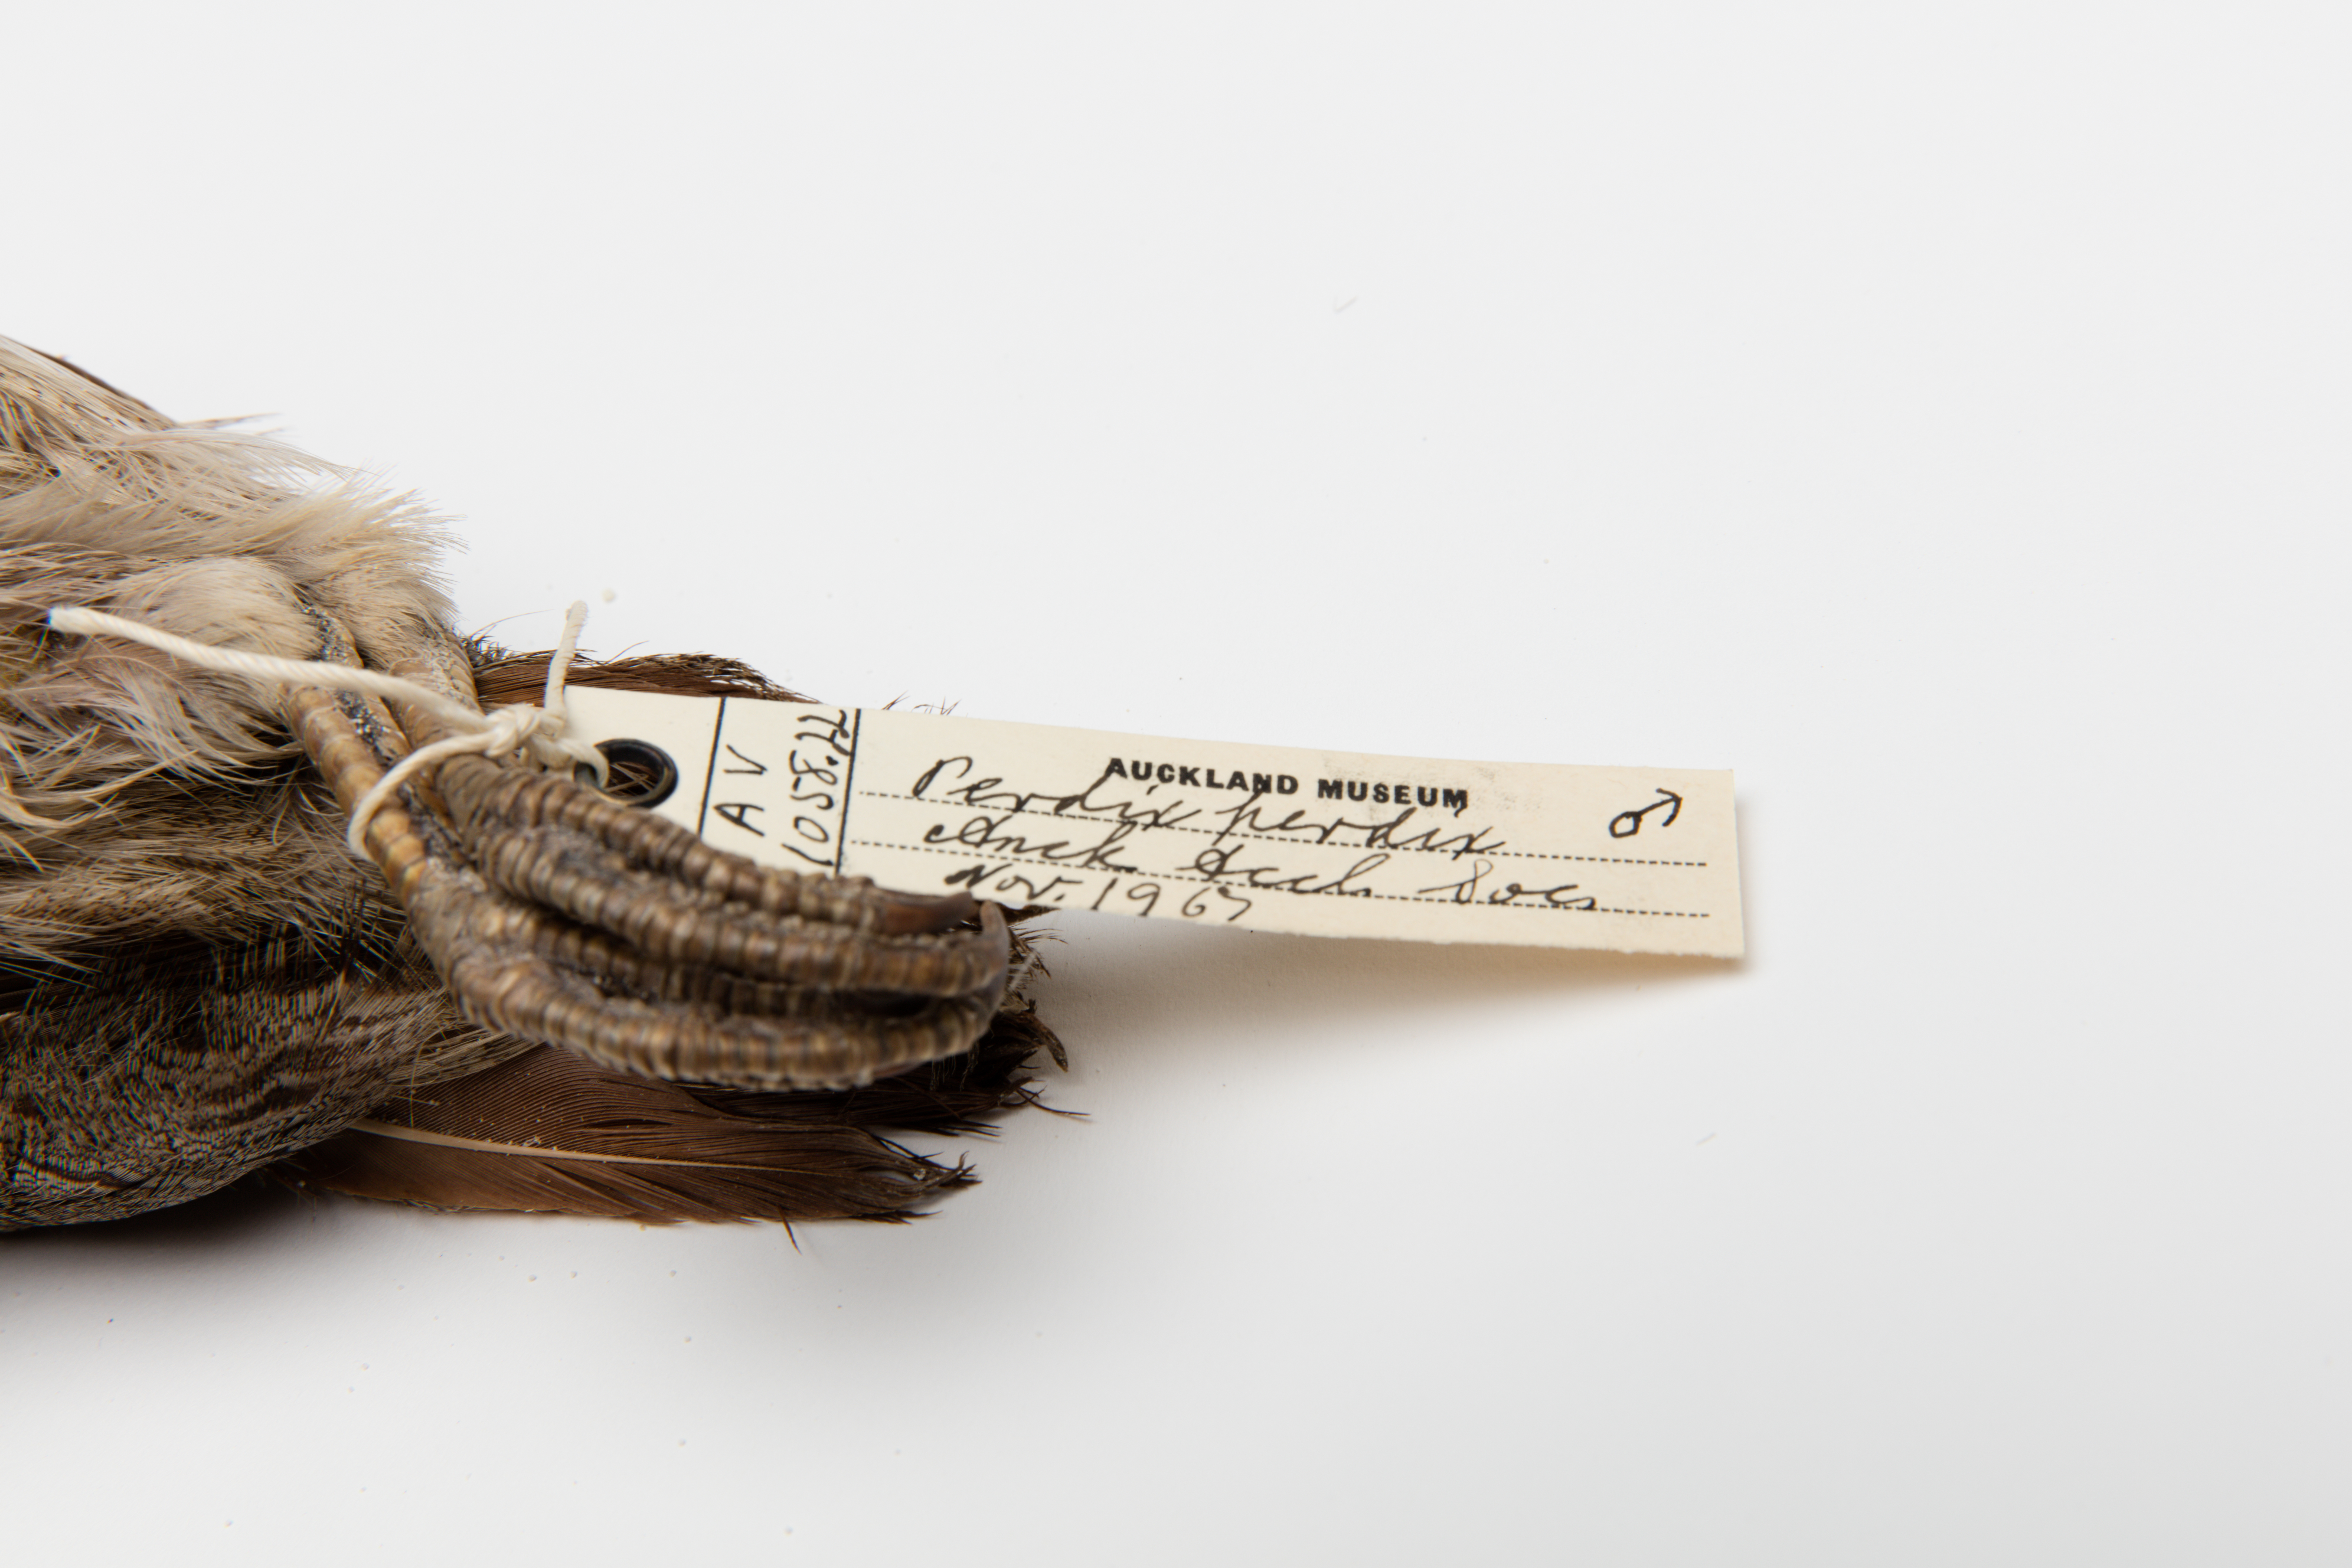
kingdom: Animalia
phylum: Chordata
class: Aves
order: Galliformes
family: Phasianidae
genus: Perdix
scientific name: Perdix perdix
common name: Grey partridge
